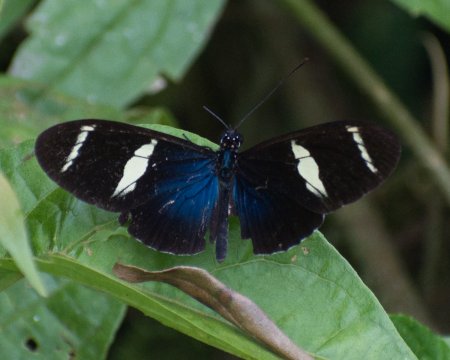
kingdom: Animalia
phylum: Arthropoda
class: Insecta
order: Lepidoptera
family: Nymphalidae
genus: Heliconius
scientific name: Heliconius sara
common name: Sara Longwing
